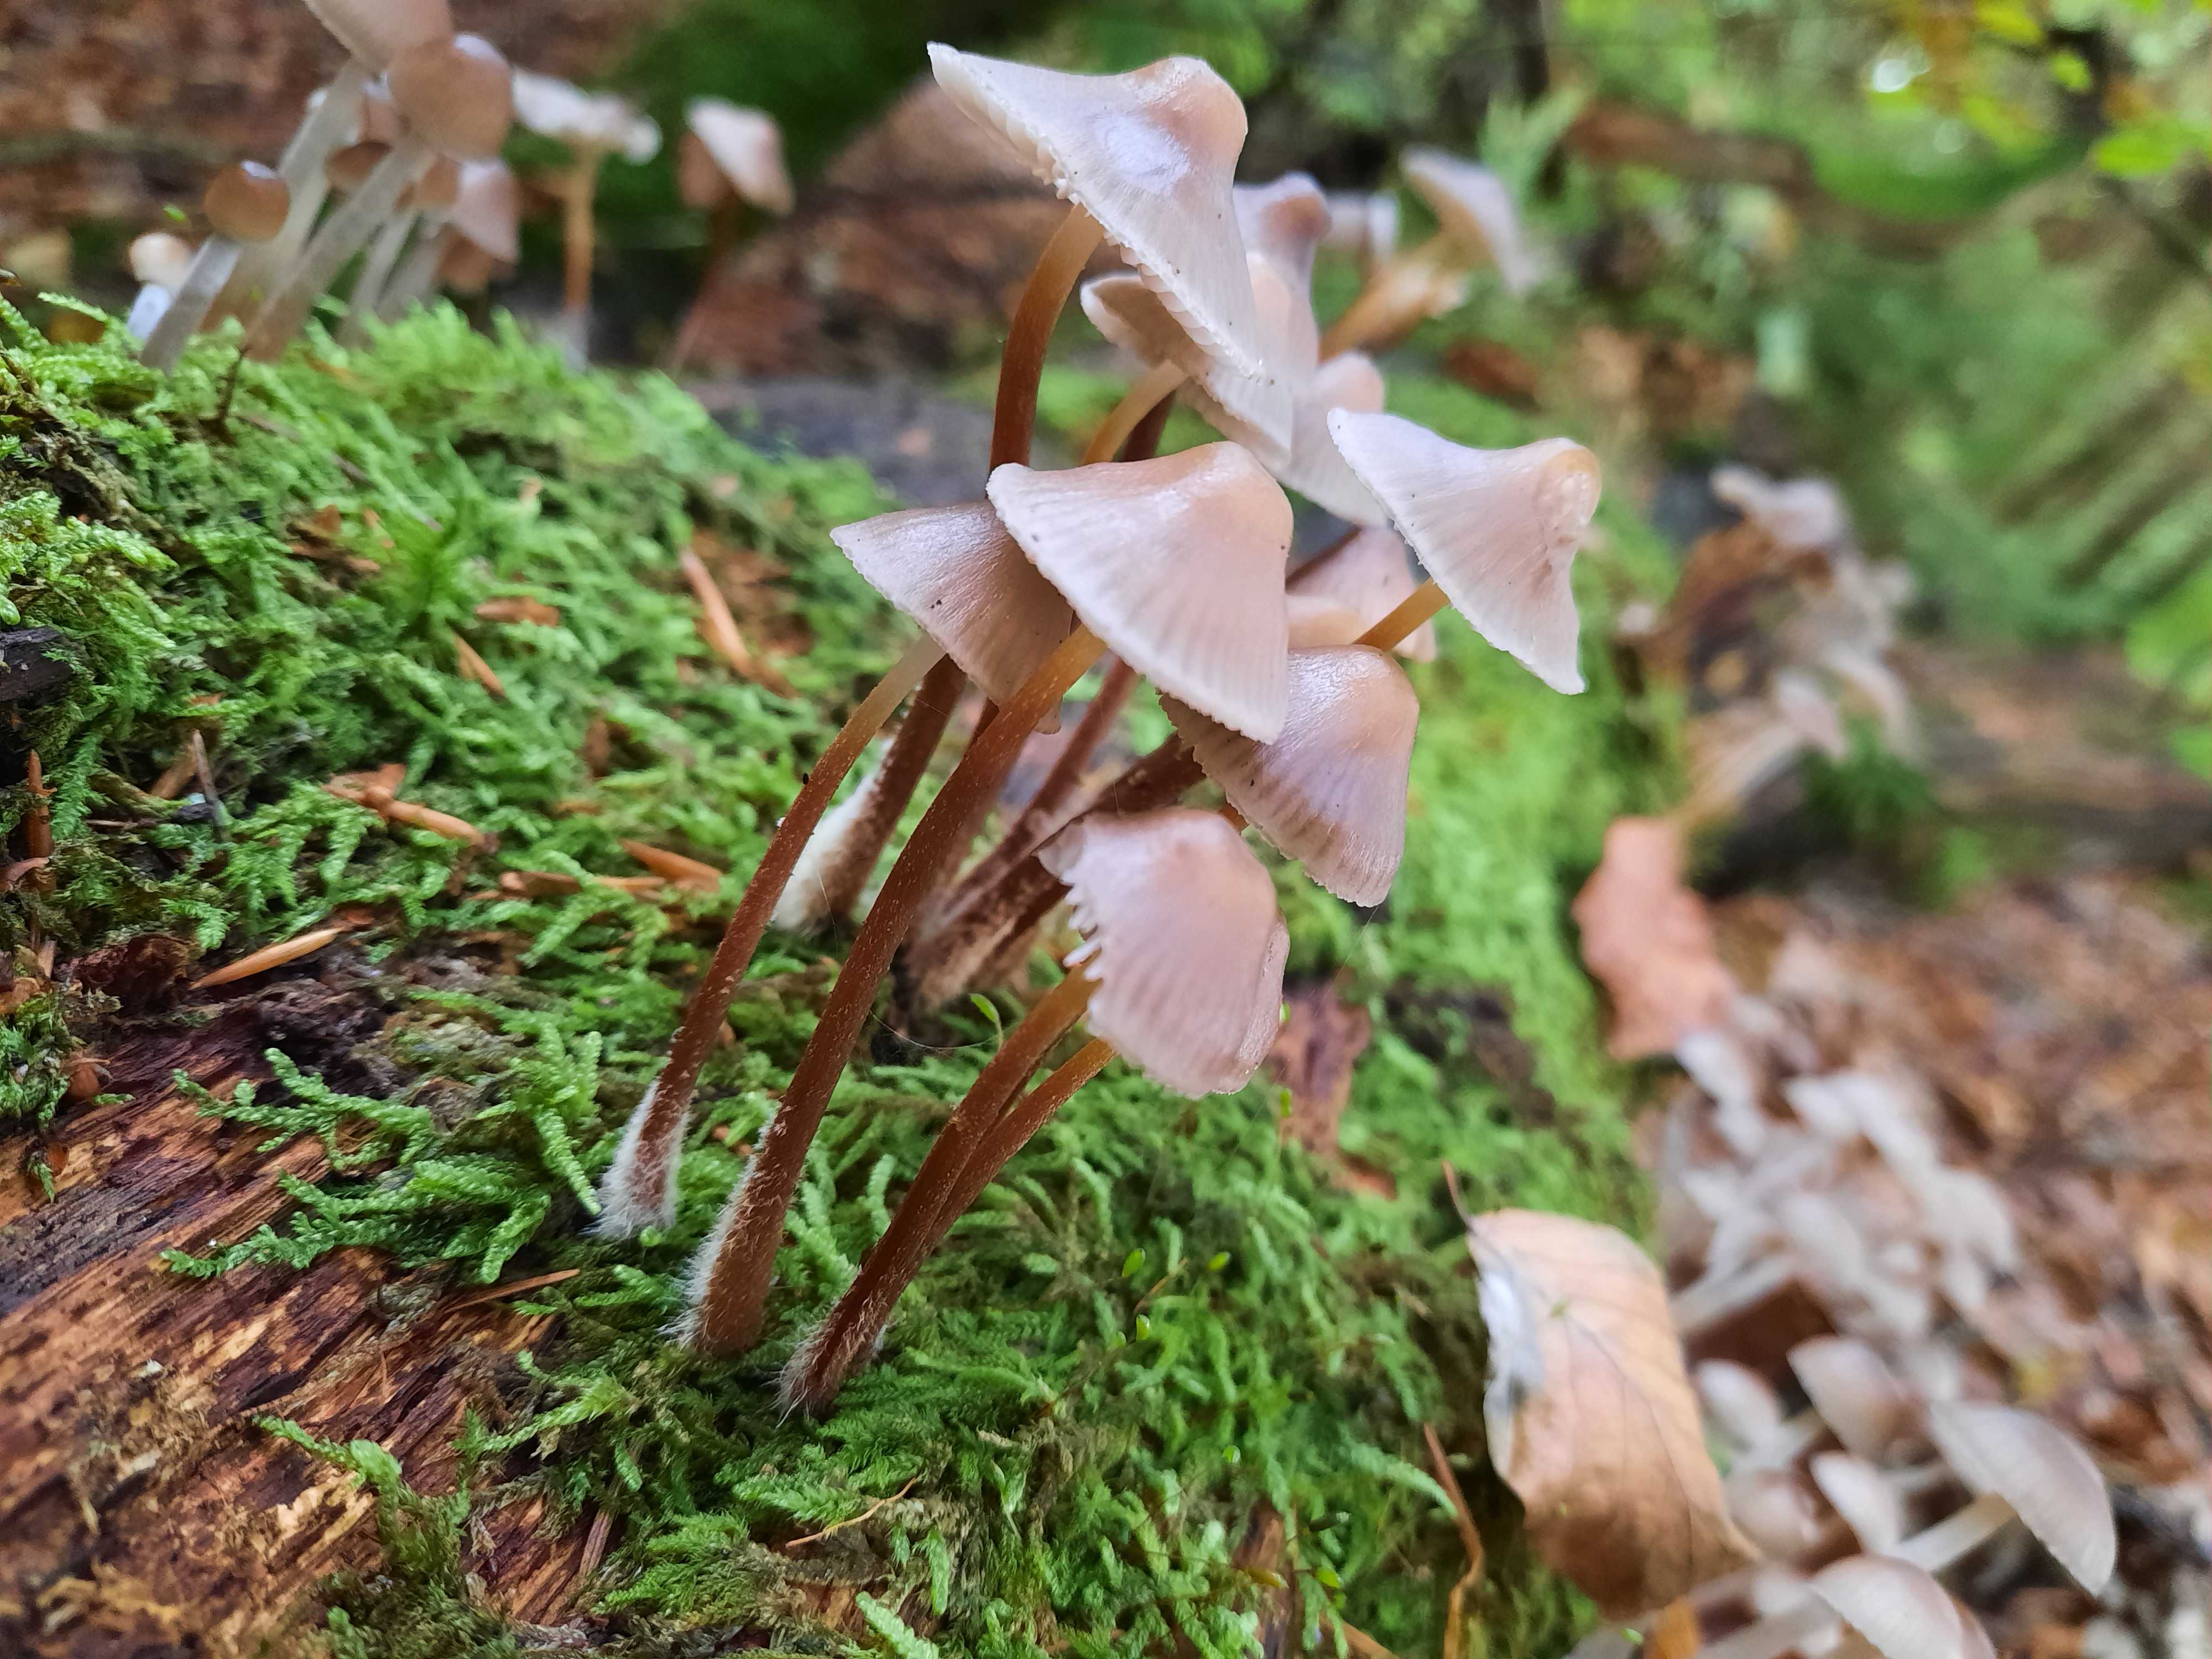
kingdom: Fungi
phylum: Basidiomycota
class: Agaricomycetes
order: Agaricales
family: Mycenaceae
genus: Mycena
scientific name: Mycena inclinata
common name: nikkende huesvamp
